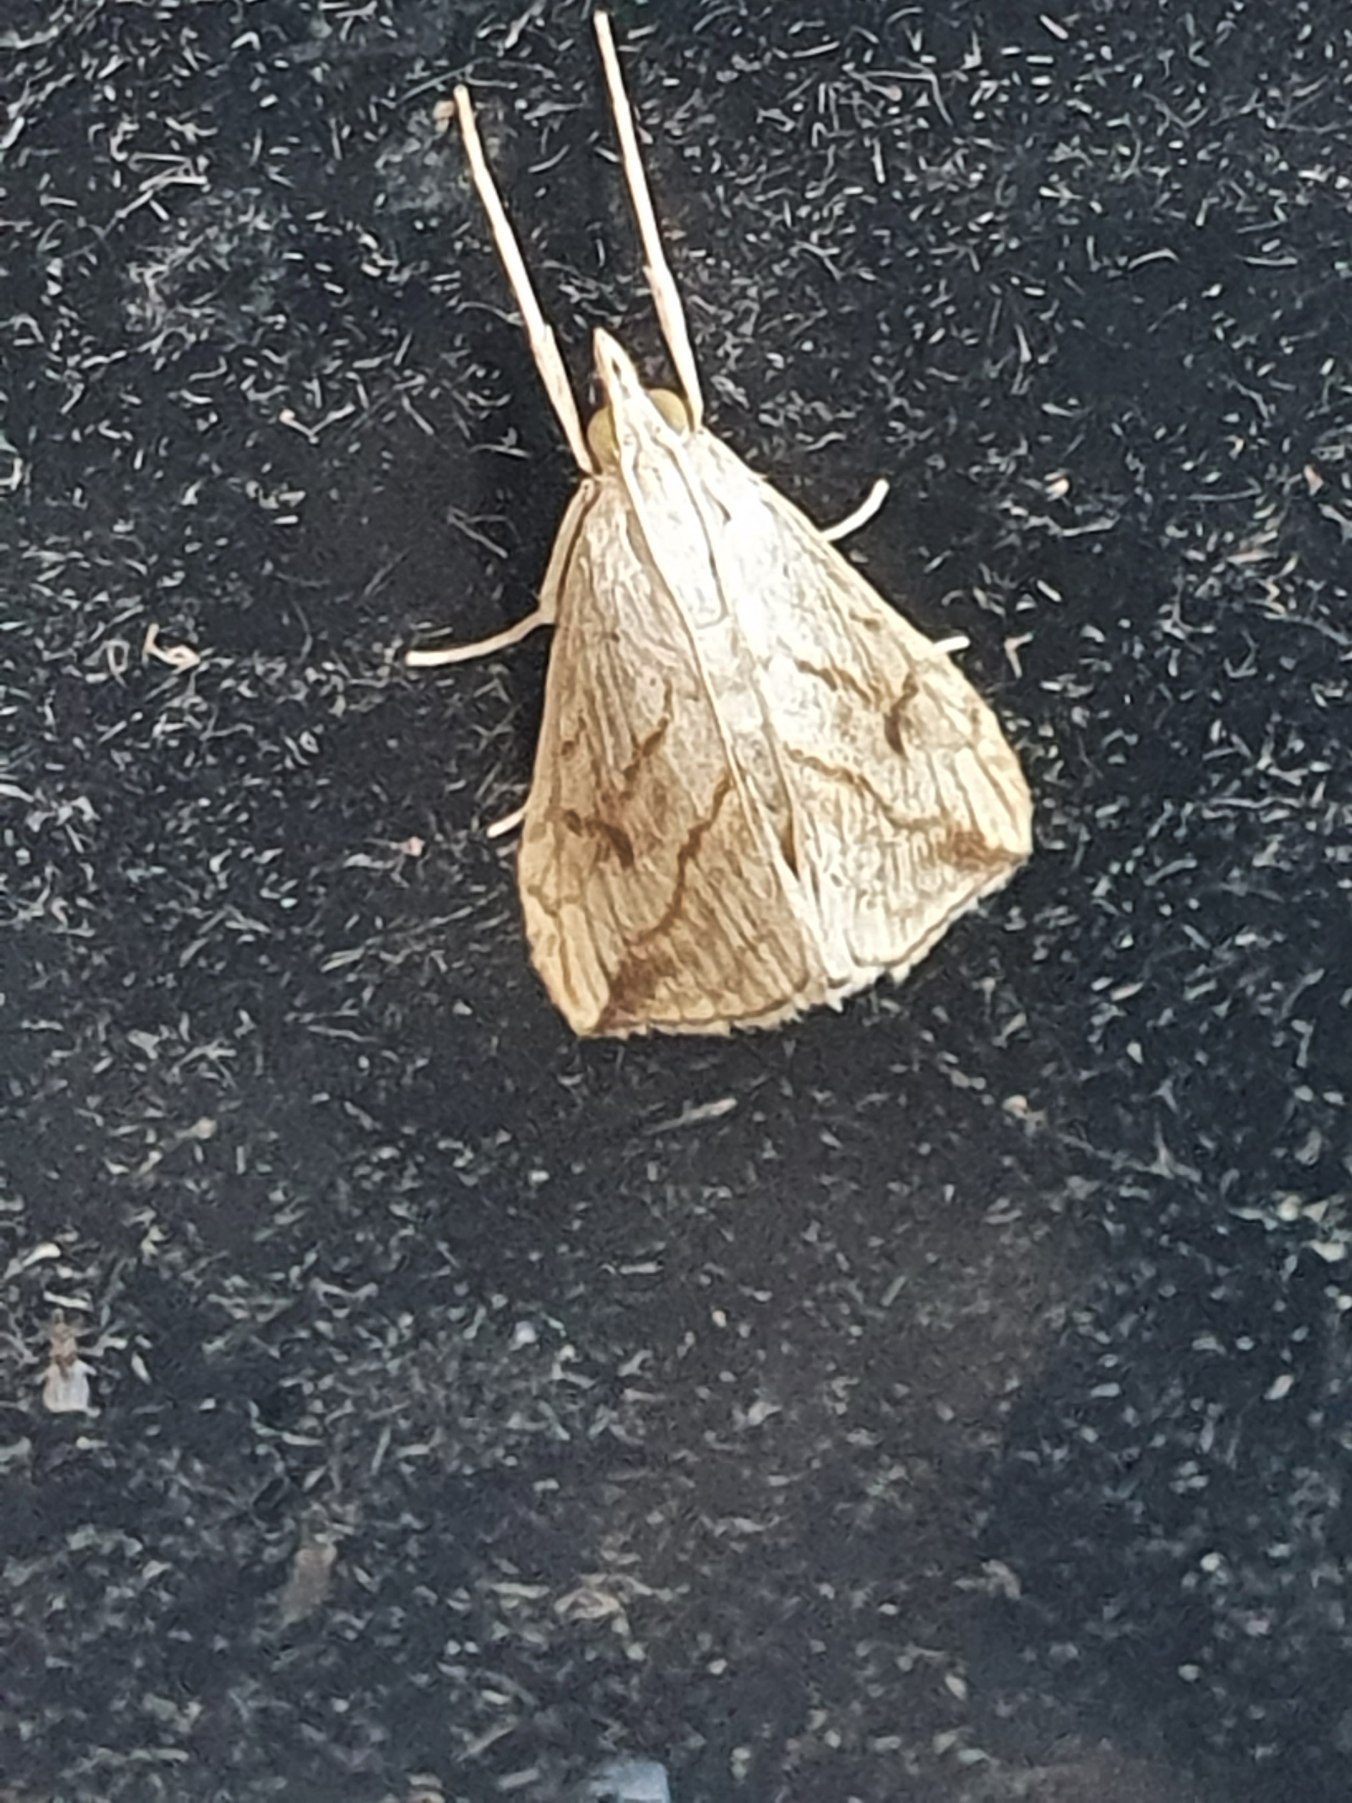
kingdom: Animalia
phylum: Arthropoda
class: Insecta
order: Lepidoptera
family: Crambidae
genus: Evergestis
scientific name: Evergestis forficalis
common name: Kålhalvmøl
